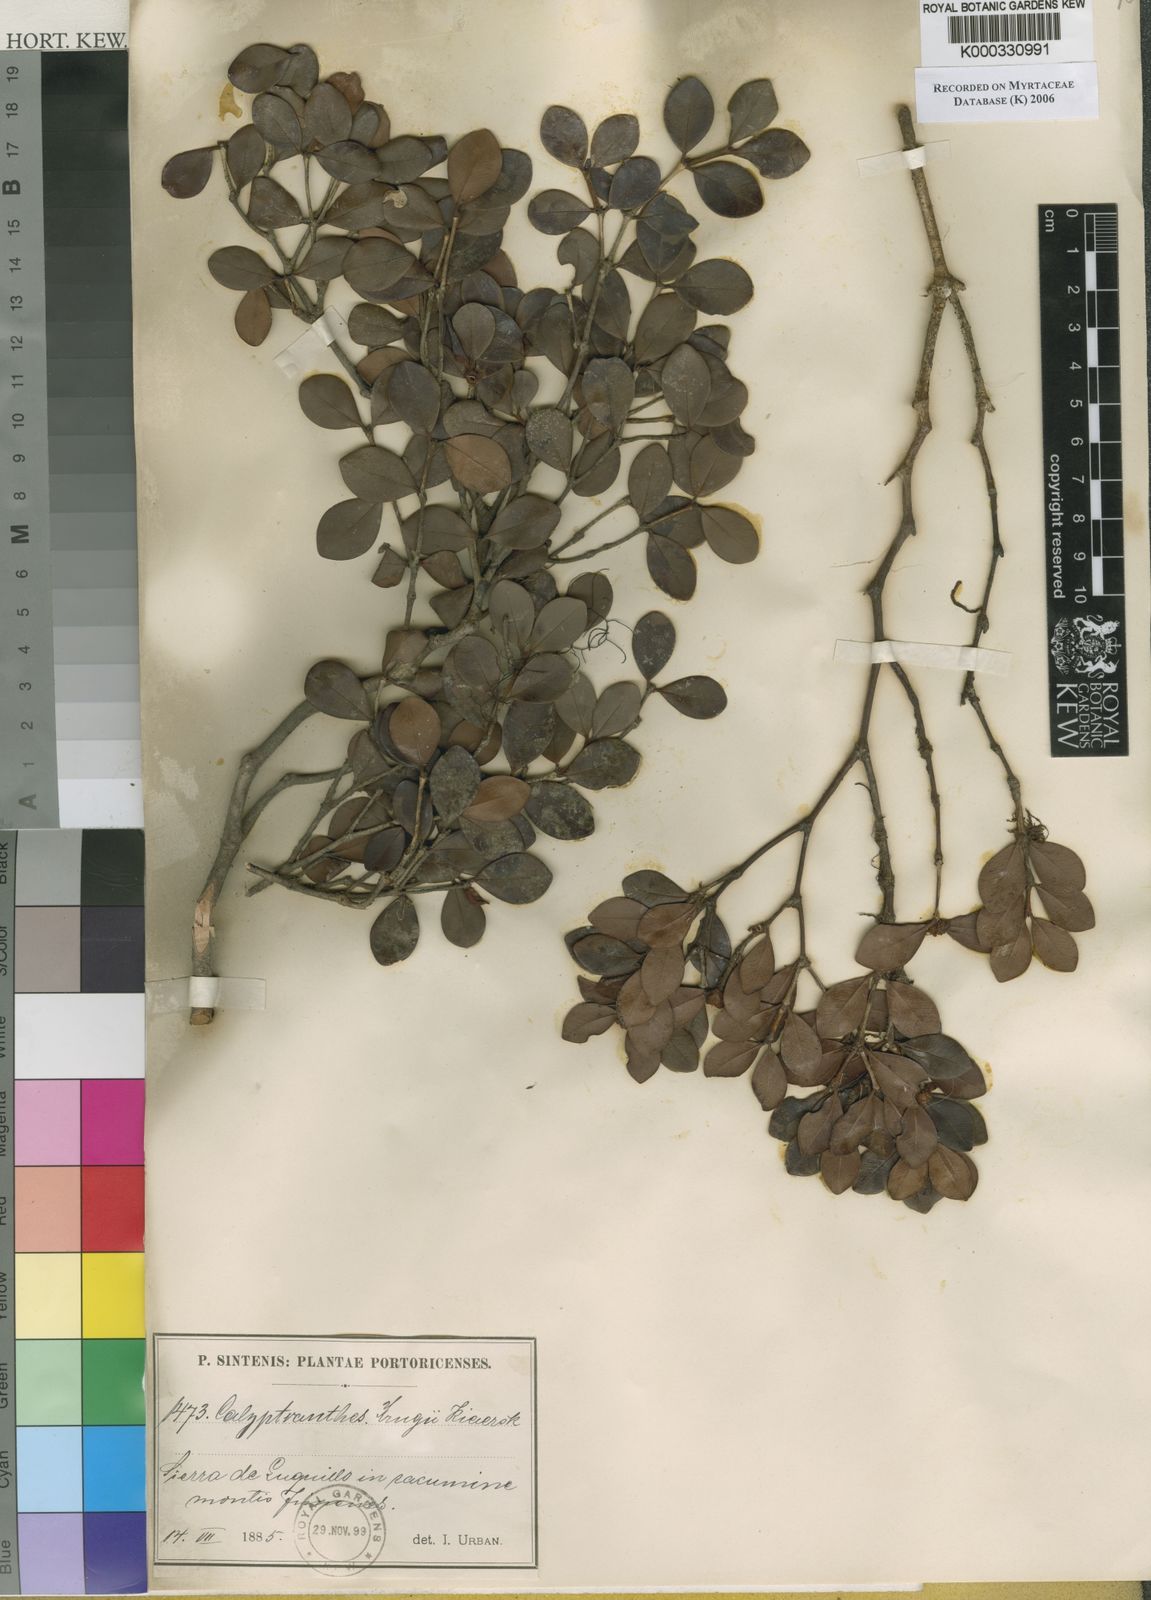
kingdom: Plantae
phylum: Tracheophyta
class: Magnoliopsida
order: Myrtales
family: Myrtaceae
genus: Myrcia
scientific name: Myrcia krugii
